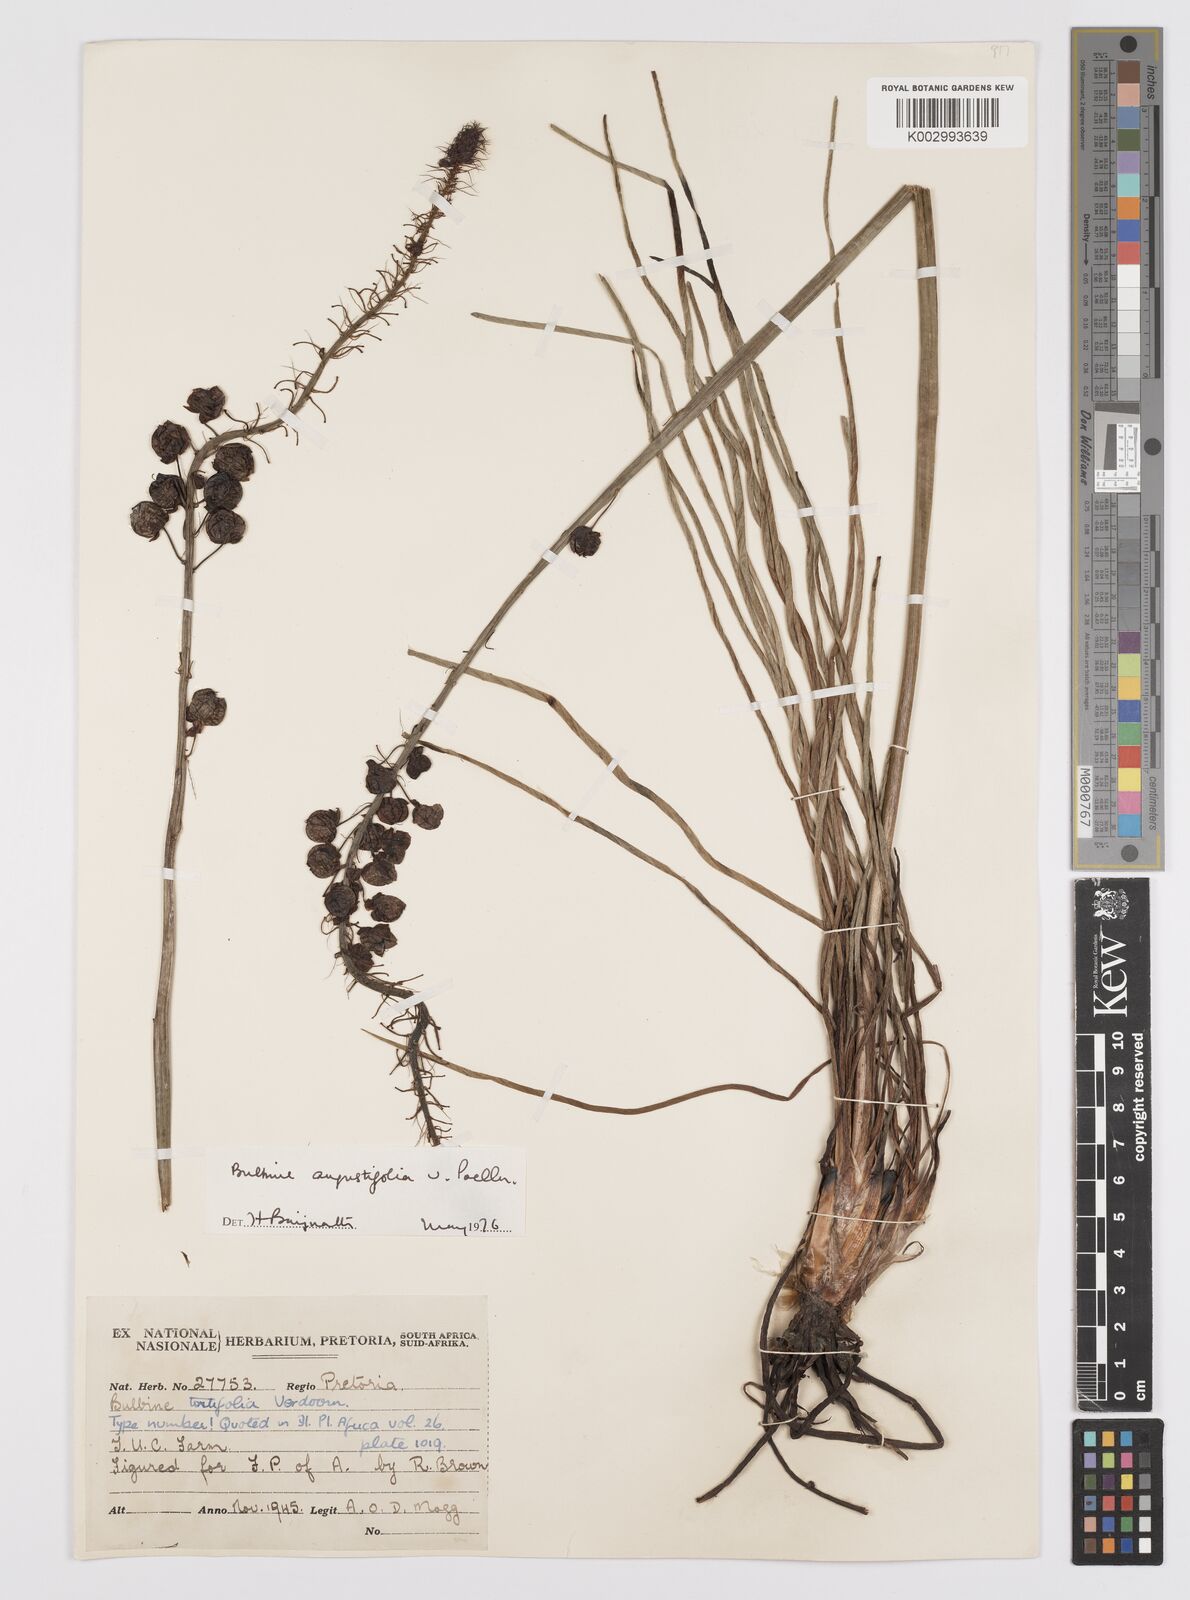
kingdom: Plantae
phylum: Tracheophyta
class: Liliopsida
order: Asparagales
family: Asphodelaceae
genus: Bulbine
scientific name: Bulbine angustifolia
